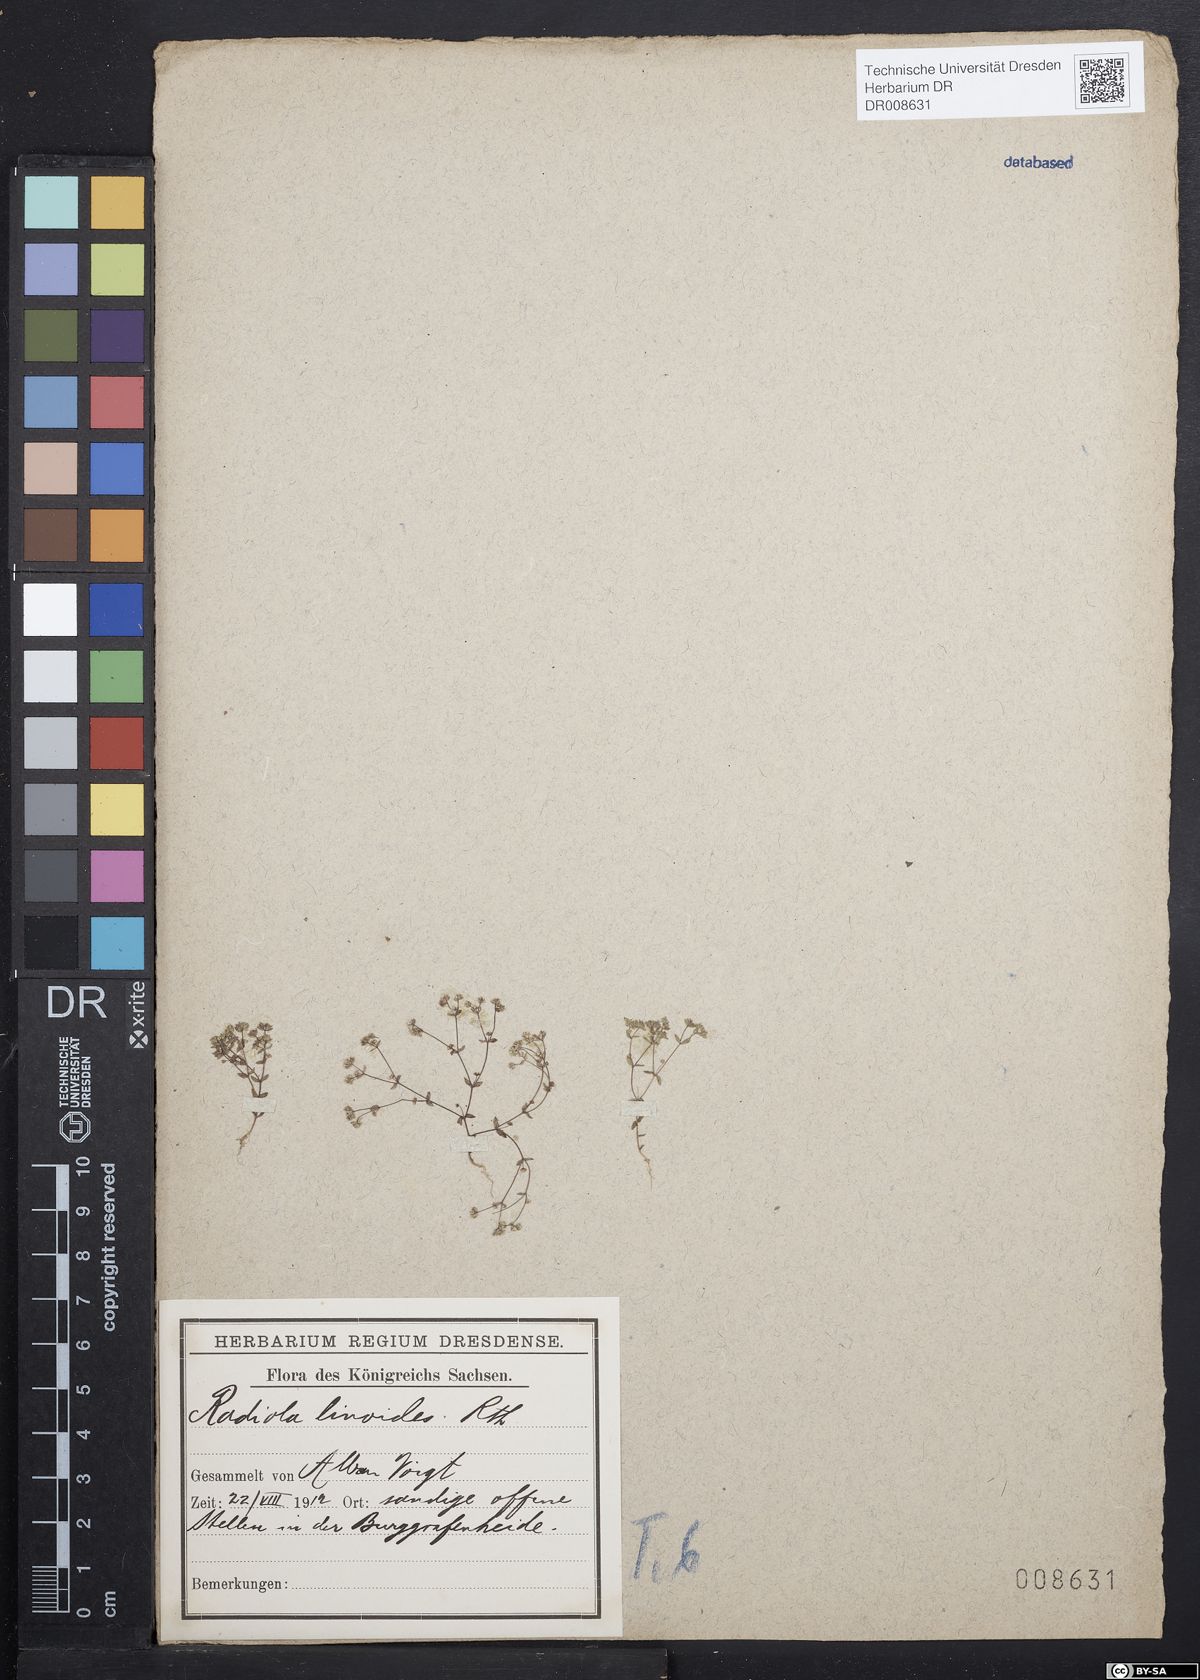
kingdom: Plantae
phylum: Tracheophyta
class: Magnoliopsida
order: Malpighiales
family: Linaceae
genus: Radiola
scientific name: Radiola linoides
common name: Allseed
